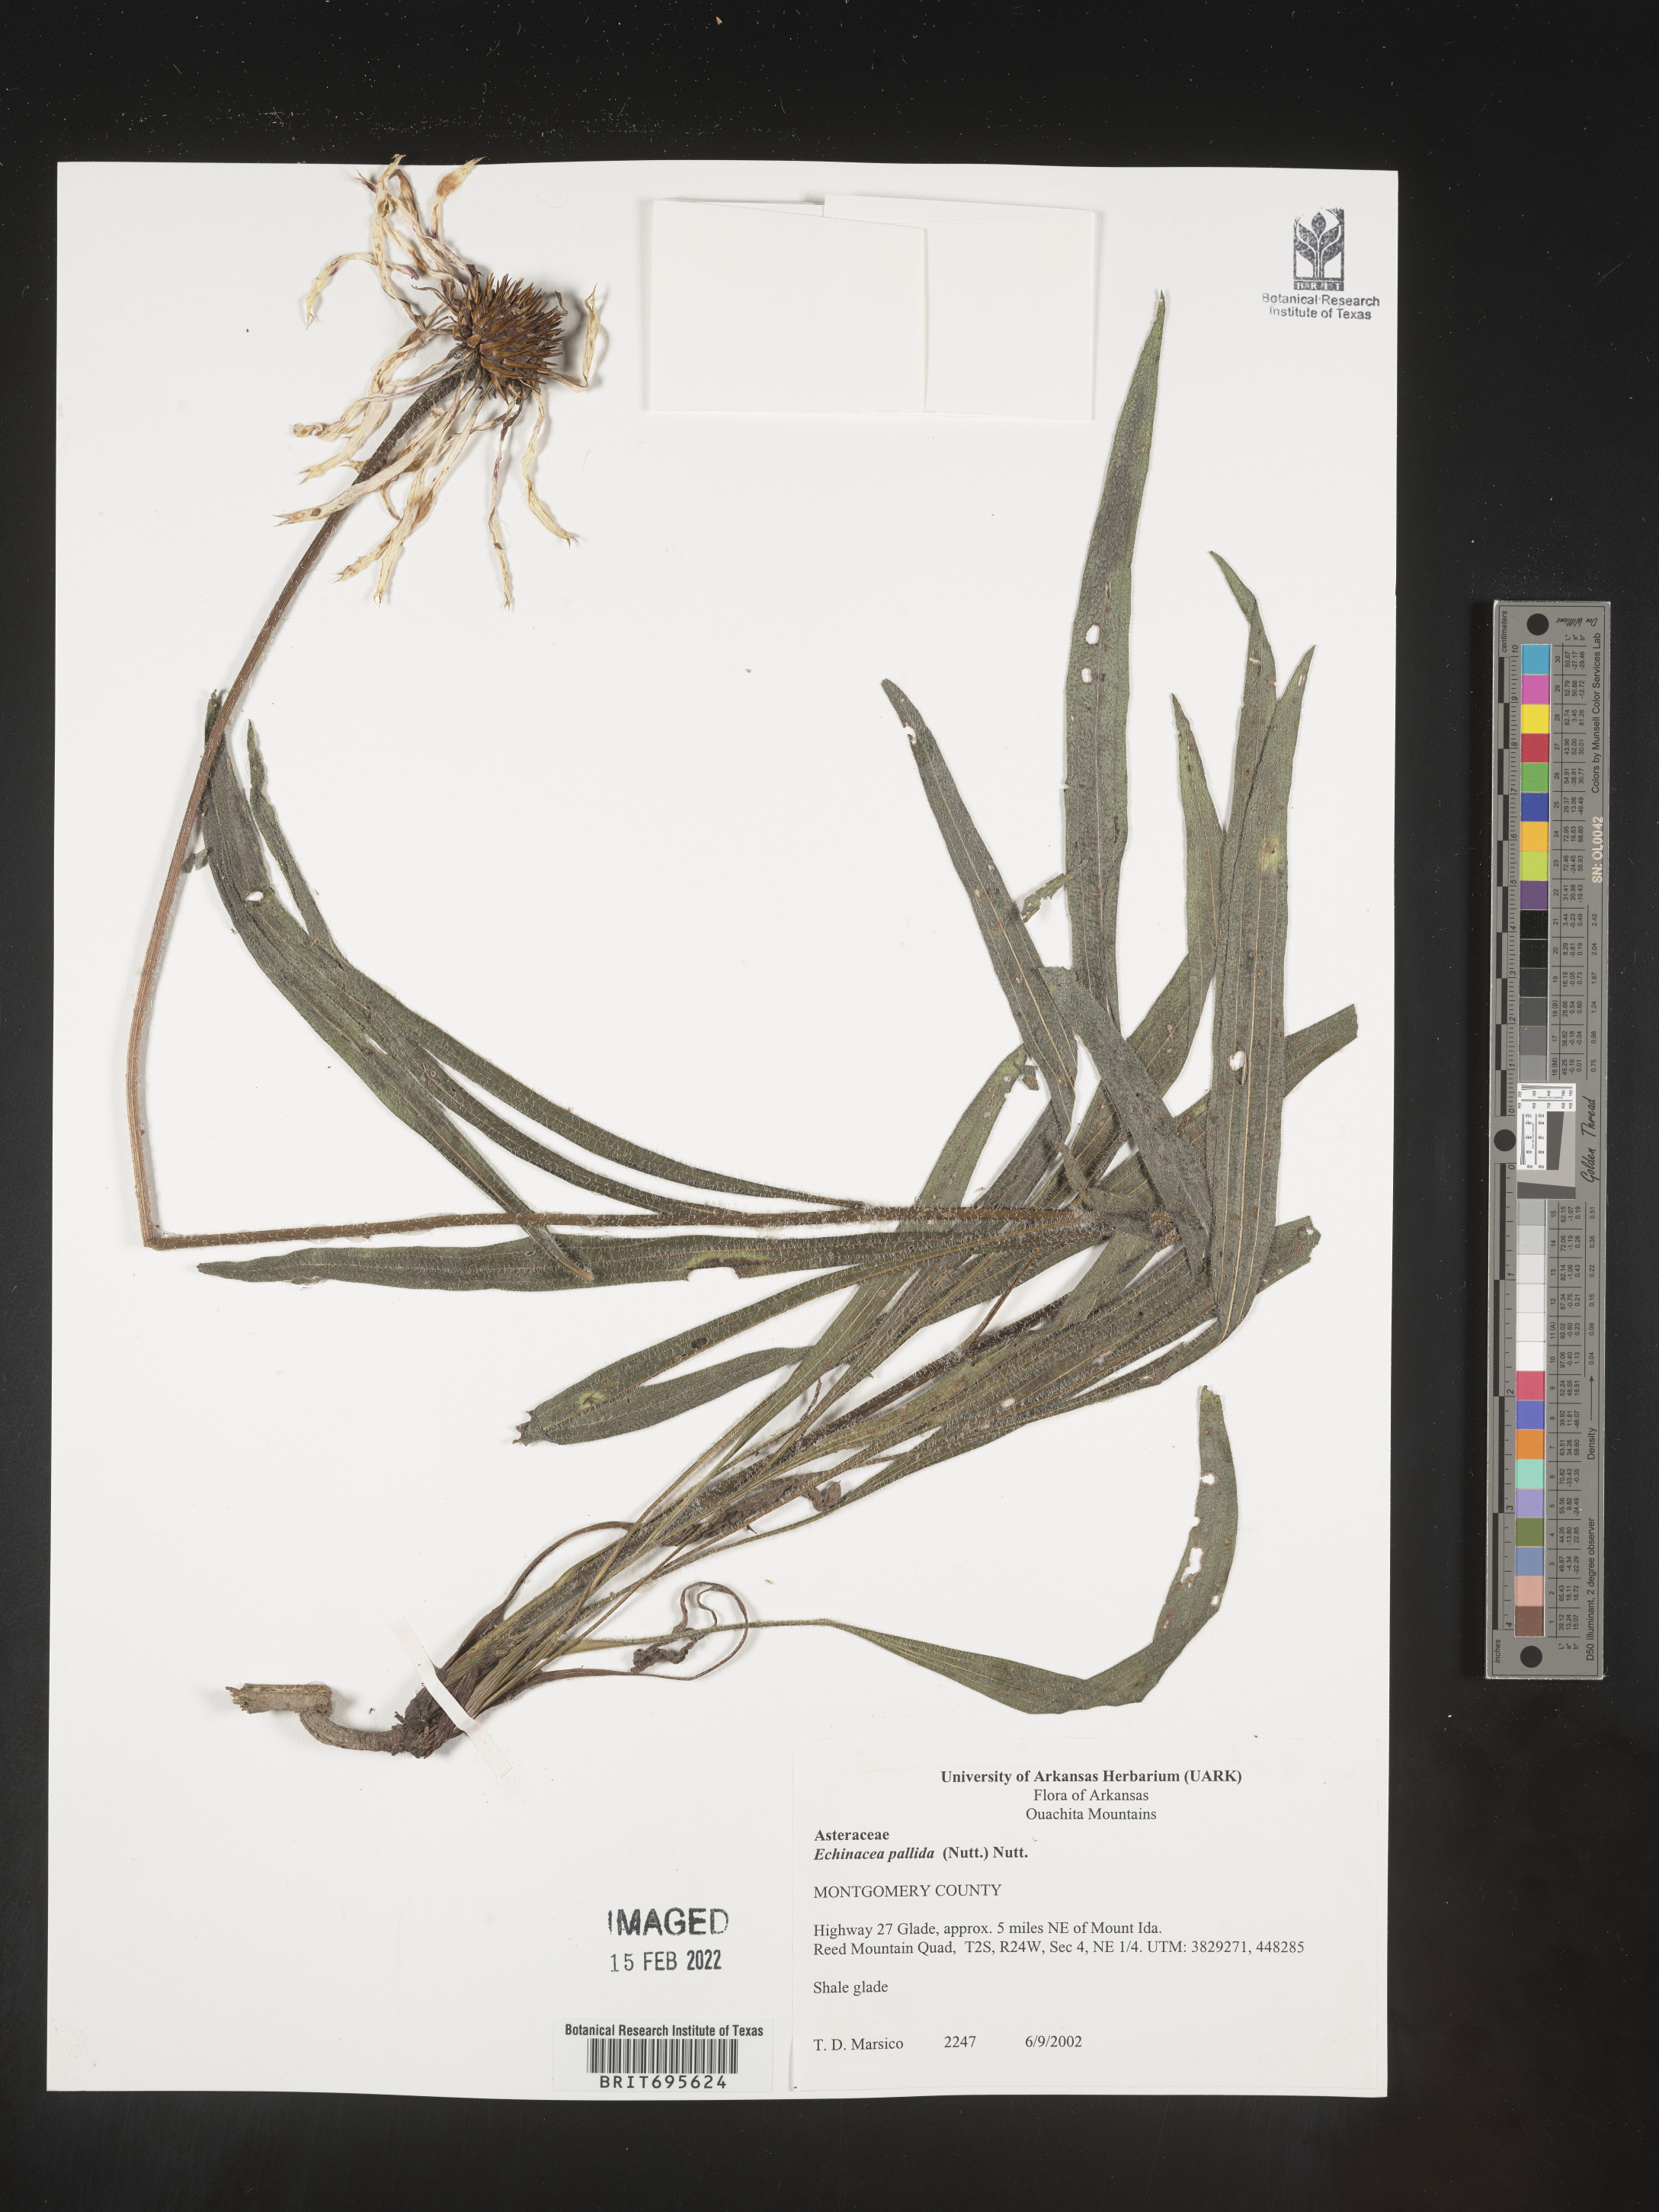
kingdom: Plantae
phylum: Tracheophyta
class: Magnoliopsida
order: Asterales
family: Asteraceae
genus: Echinacea
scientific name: Echinacea pallida
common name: Pale echinacea
